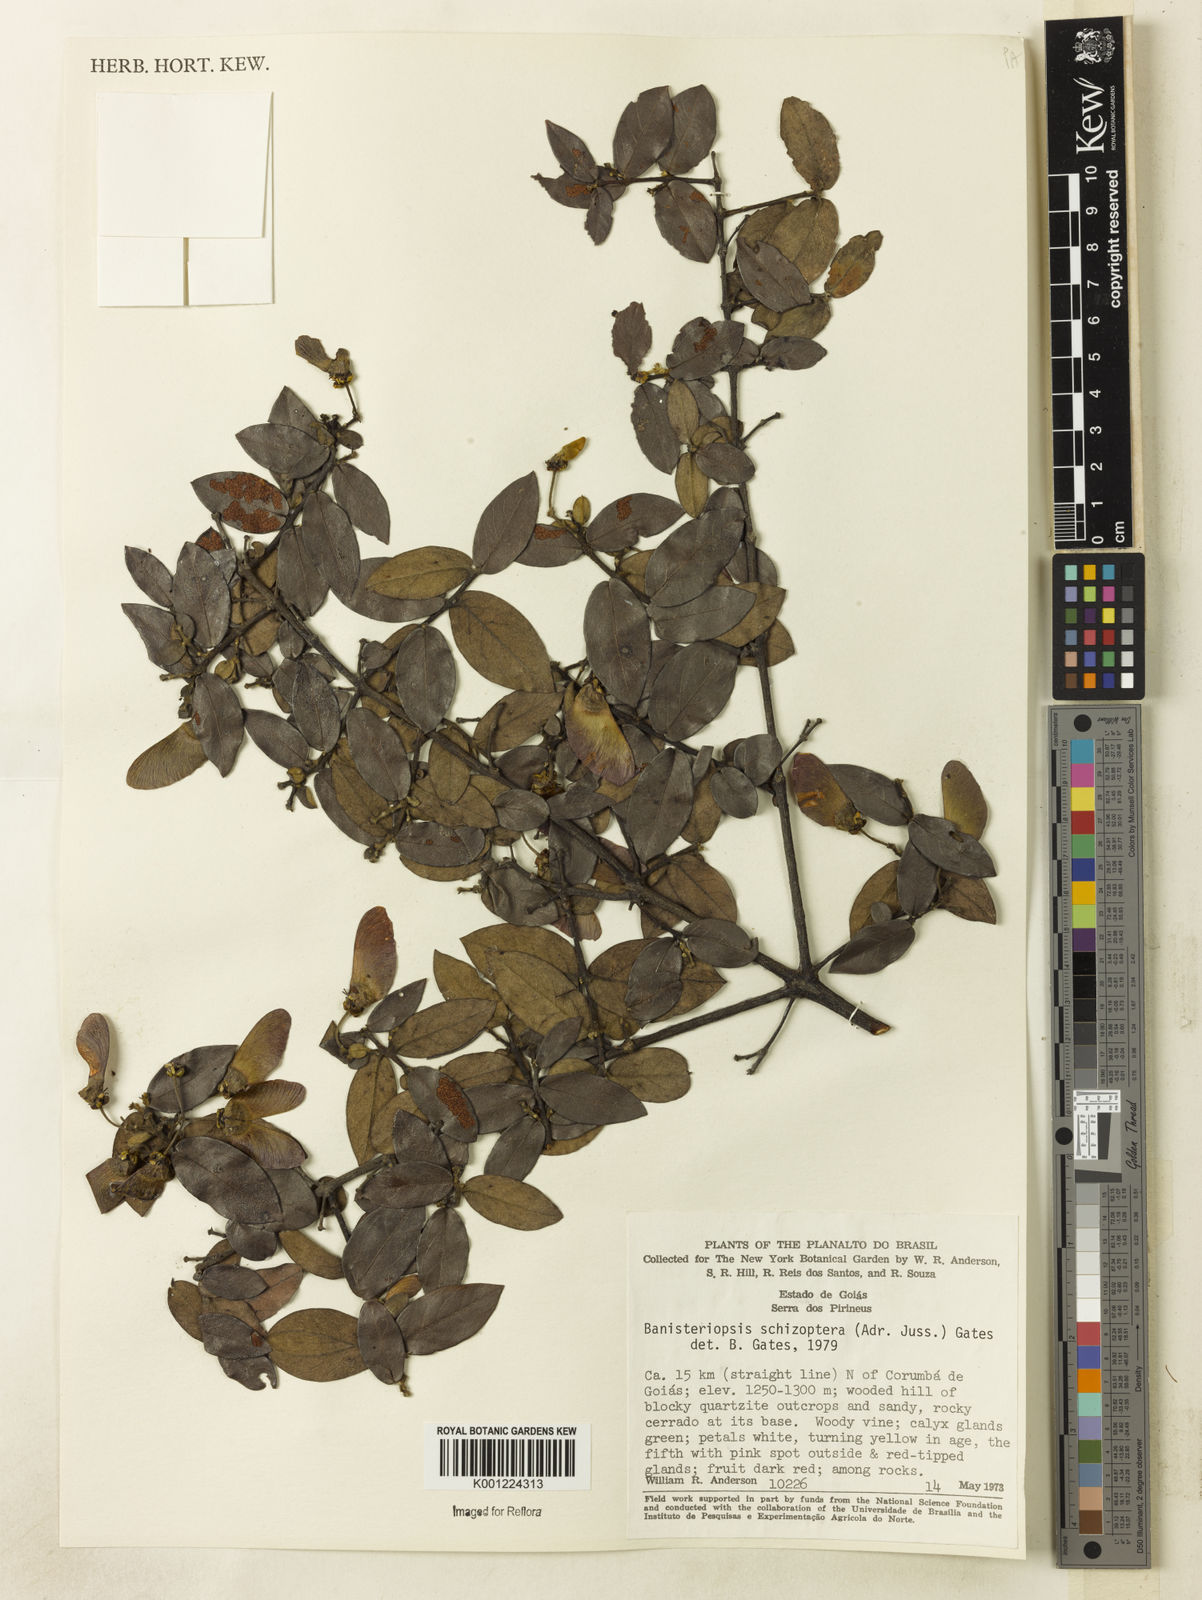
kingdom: Plantae
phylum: Tracheophyta
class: Magnoliopsida
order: Malpighiales
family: Malpighiaceae
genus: Banisteriopsis
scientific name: Banisteriopsis schizoptera
